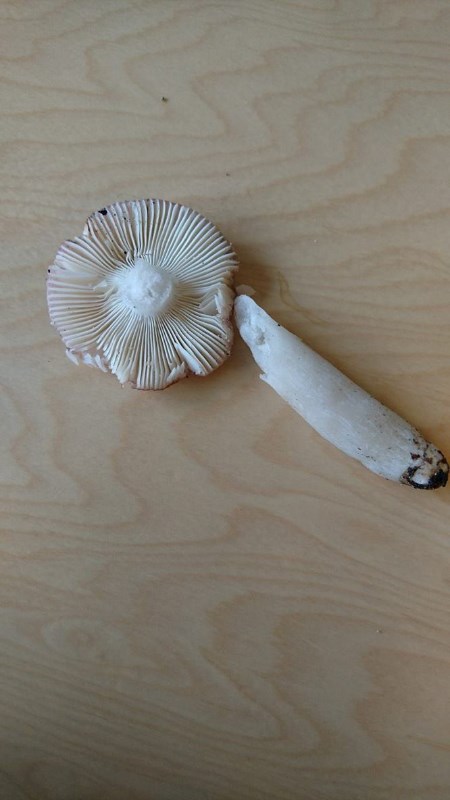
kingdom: Fungi
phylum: Basidiomycota
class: Agaricomycetes
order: Russulales
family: Russulaceae
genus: Russula
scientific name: Russula versicolor
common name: foranderlig skørhat
